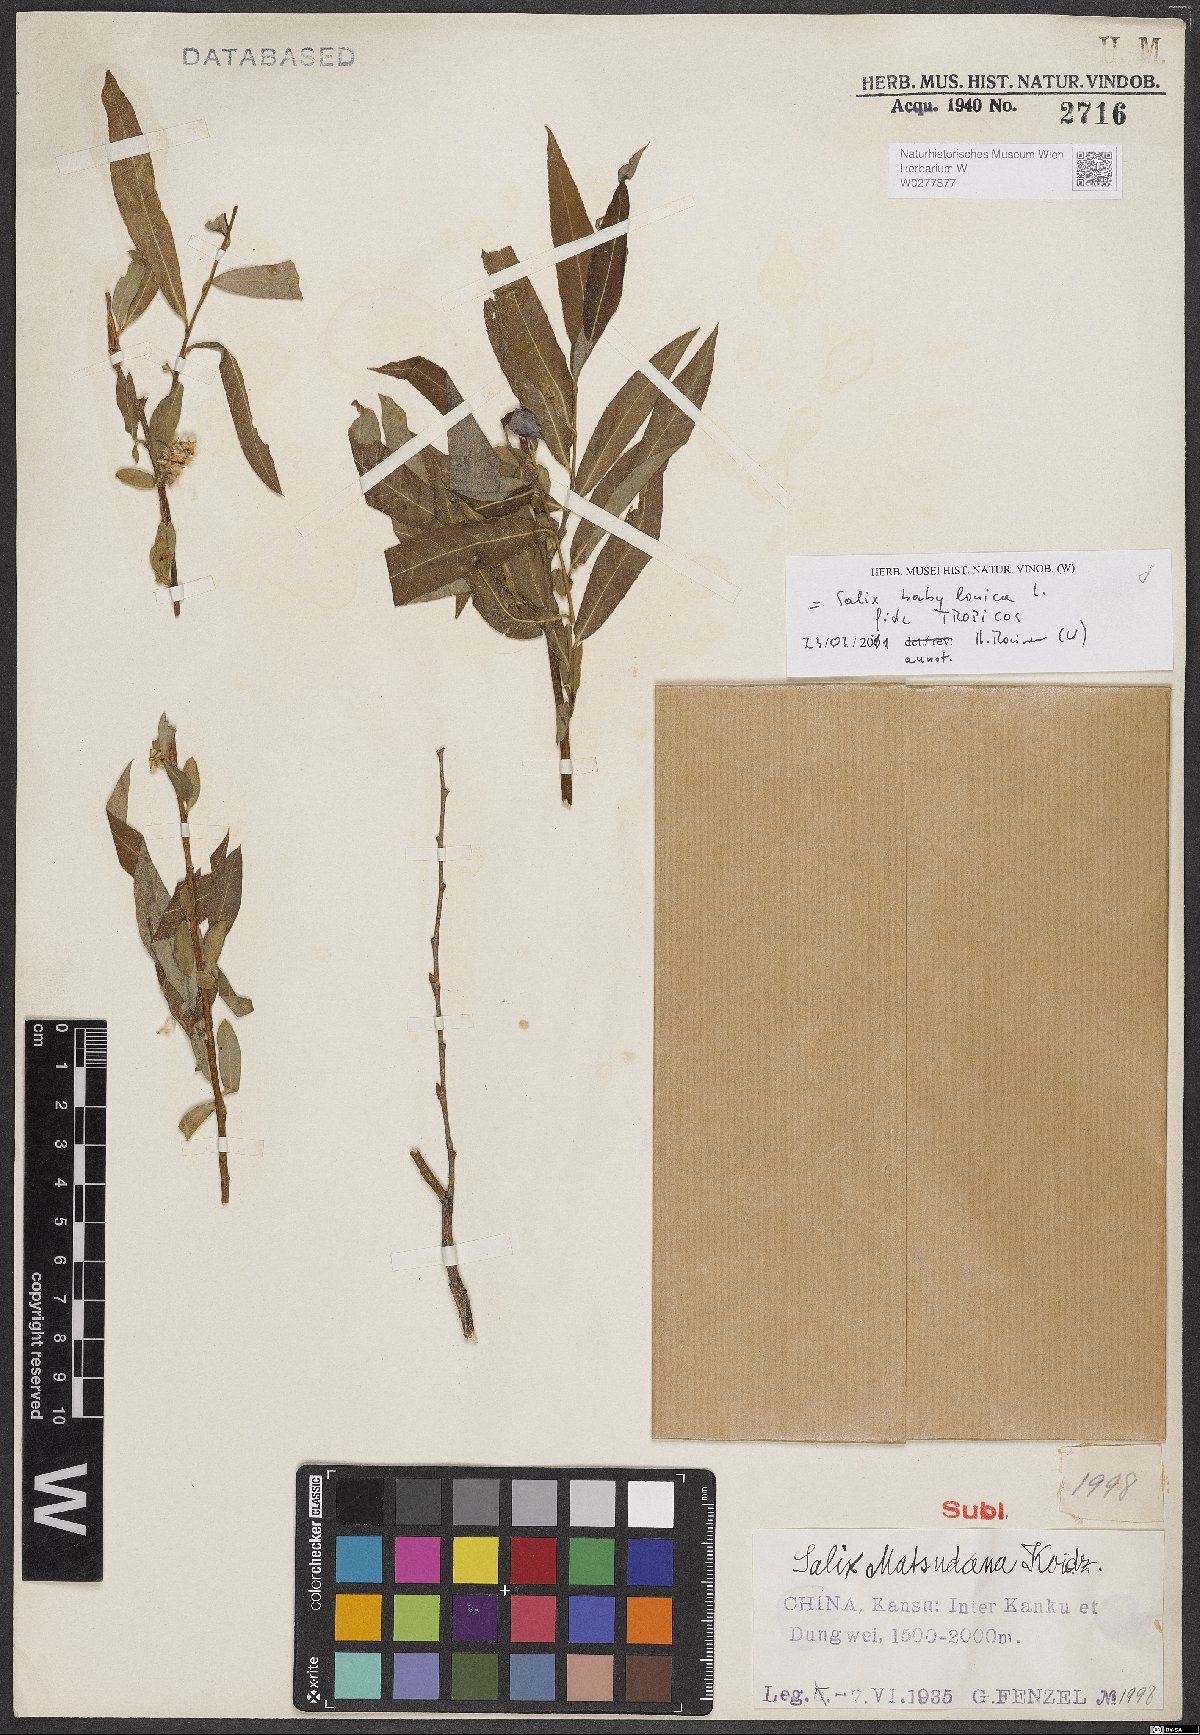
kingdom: Plantae
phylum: Tracheophyta
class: Magnoliopsida
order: Malpighiales
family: Salicaceae
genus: Salix
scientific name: Salix babylonica
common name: Weeping willow
